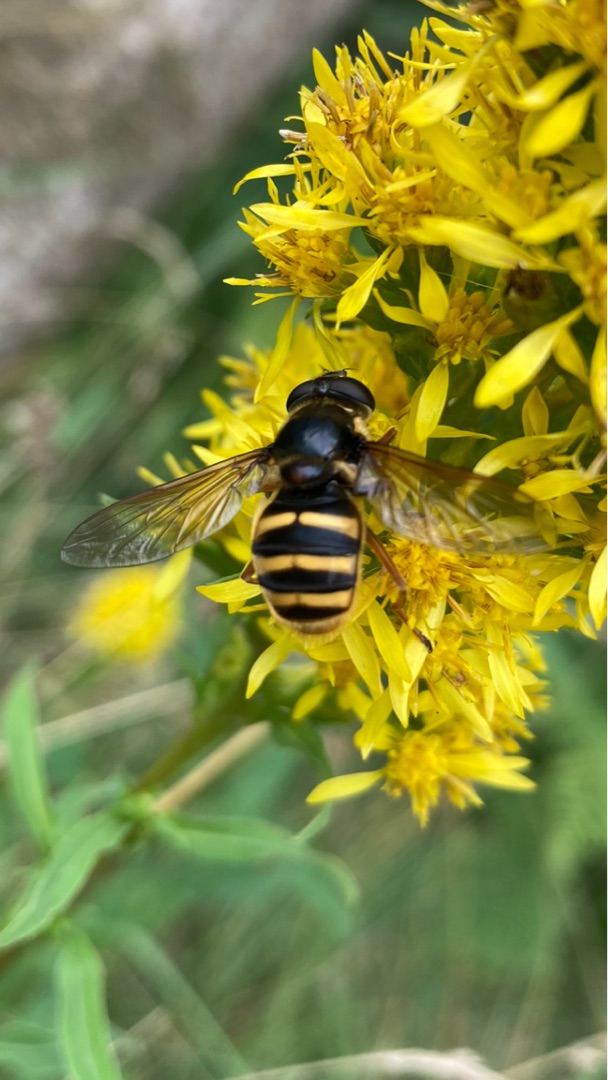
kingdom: Animalia
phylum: Arthropoda
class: Insecta
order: Diptera
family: Syrphidae
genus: Sericomyia
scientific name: Sericomyia silentis
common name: Tørve-silkesvirreflue
